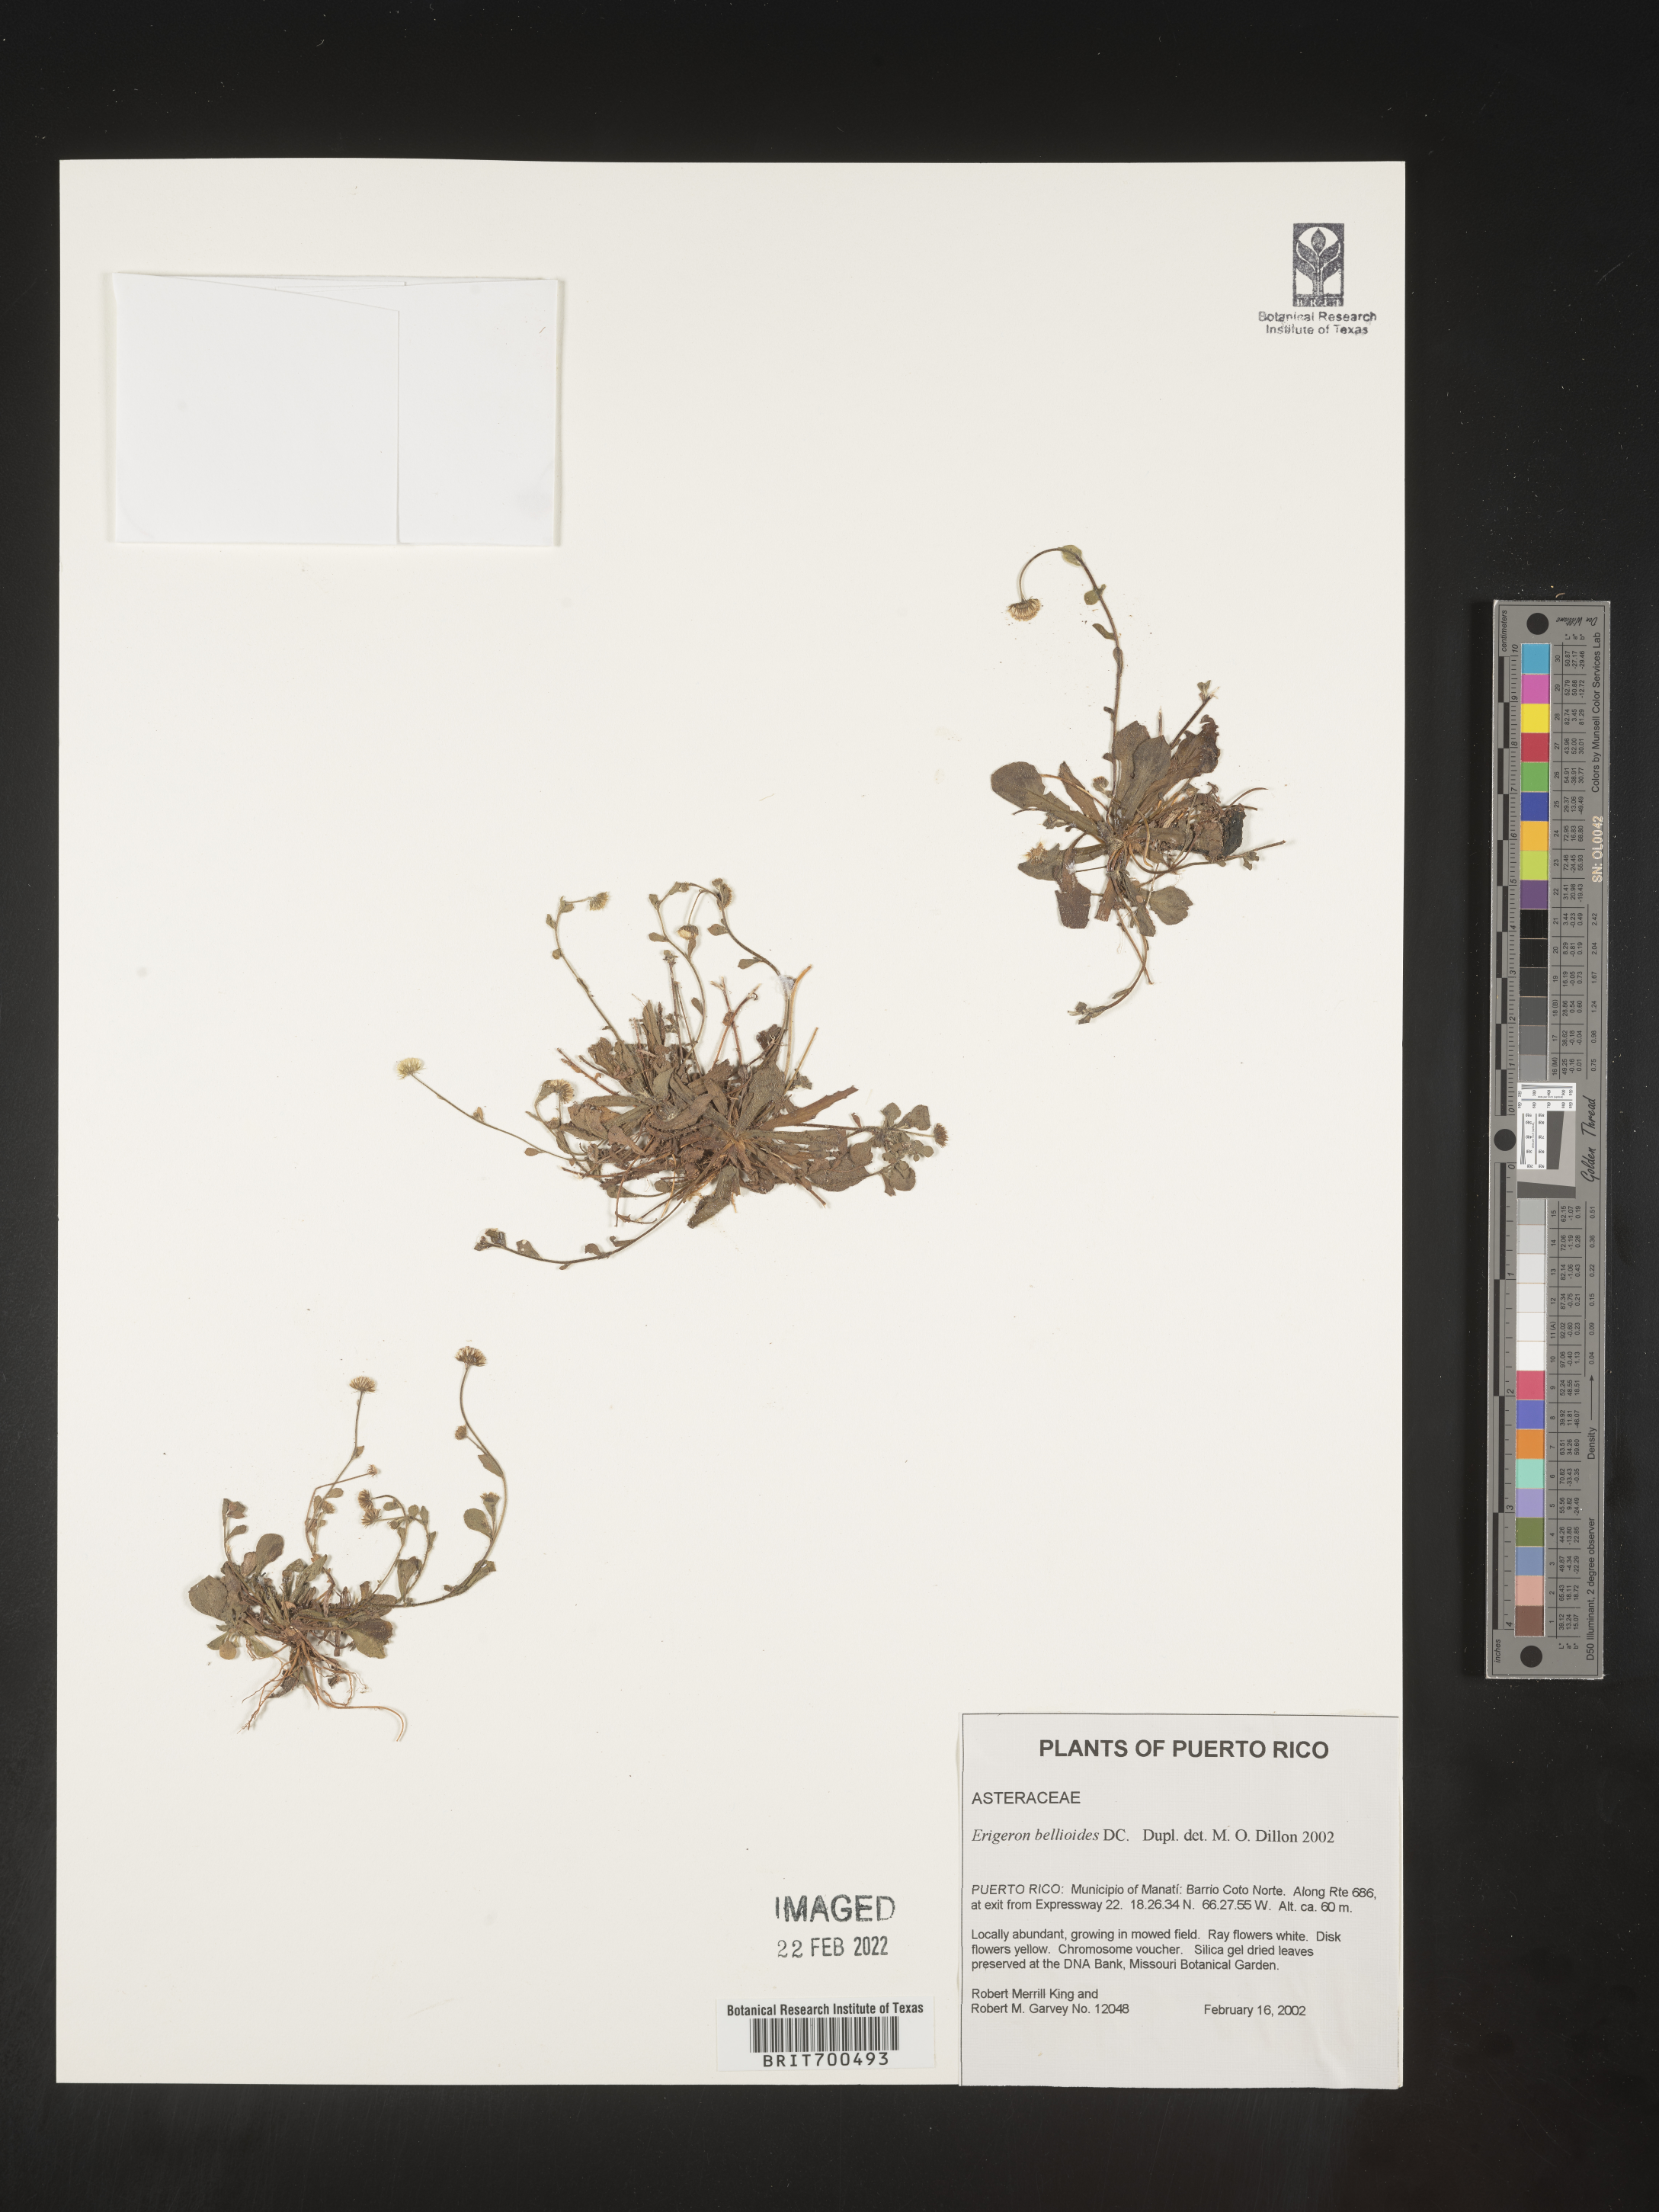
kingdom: Plantae
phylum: Tracheophyta
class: Magnoliopsida
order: Asterales
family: Asteraceae
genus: Erigeron
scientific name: Erigeron
